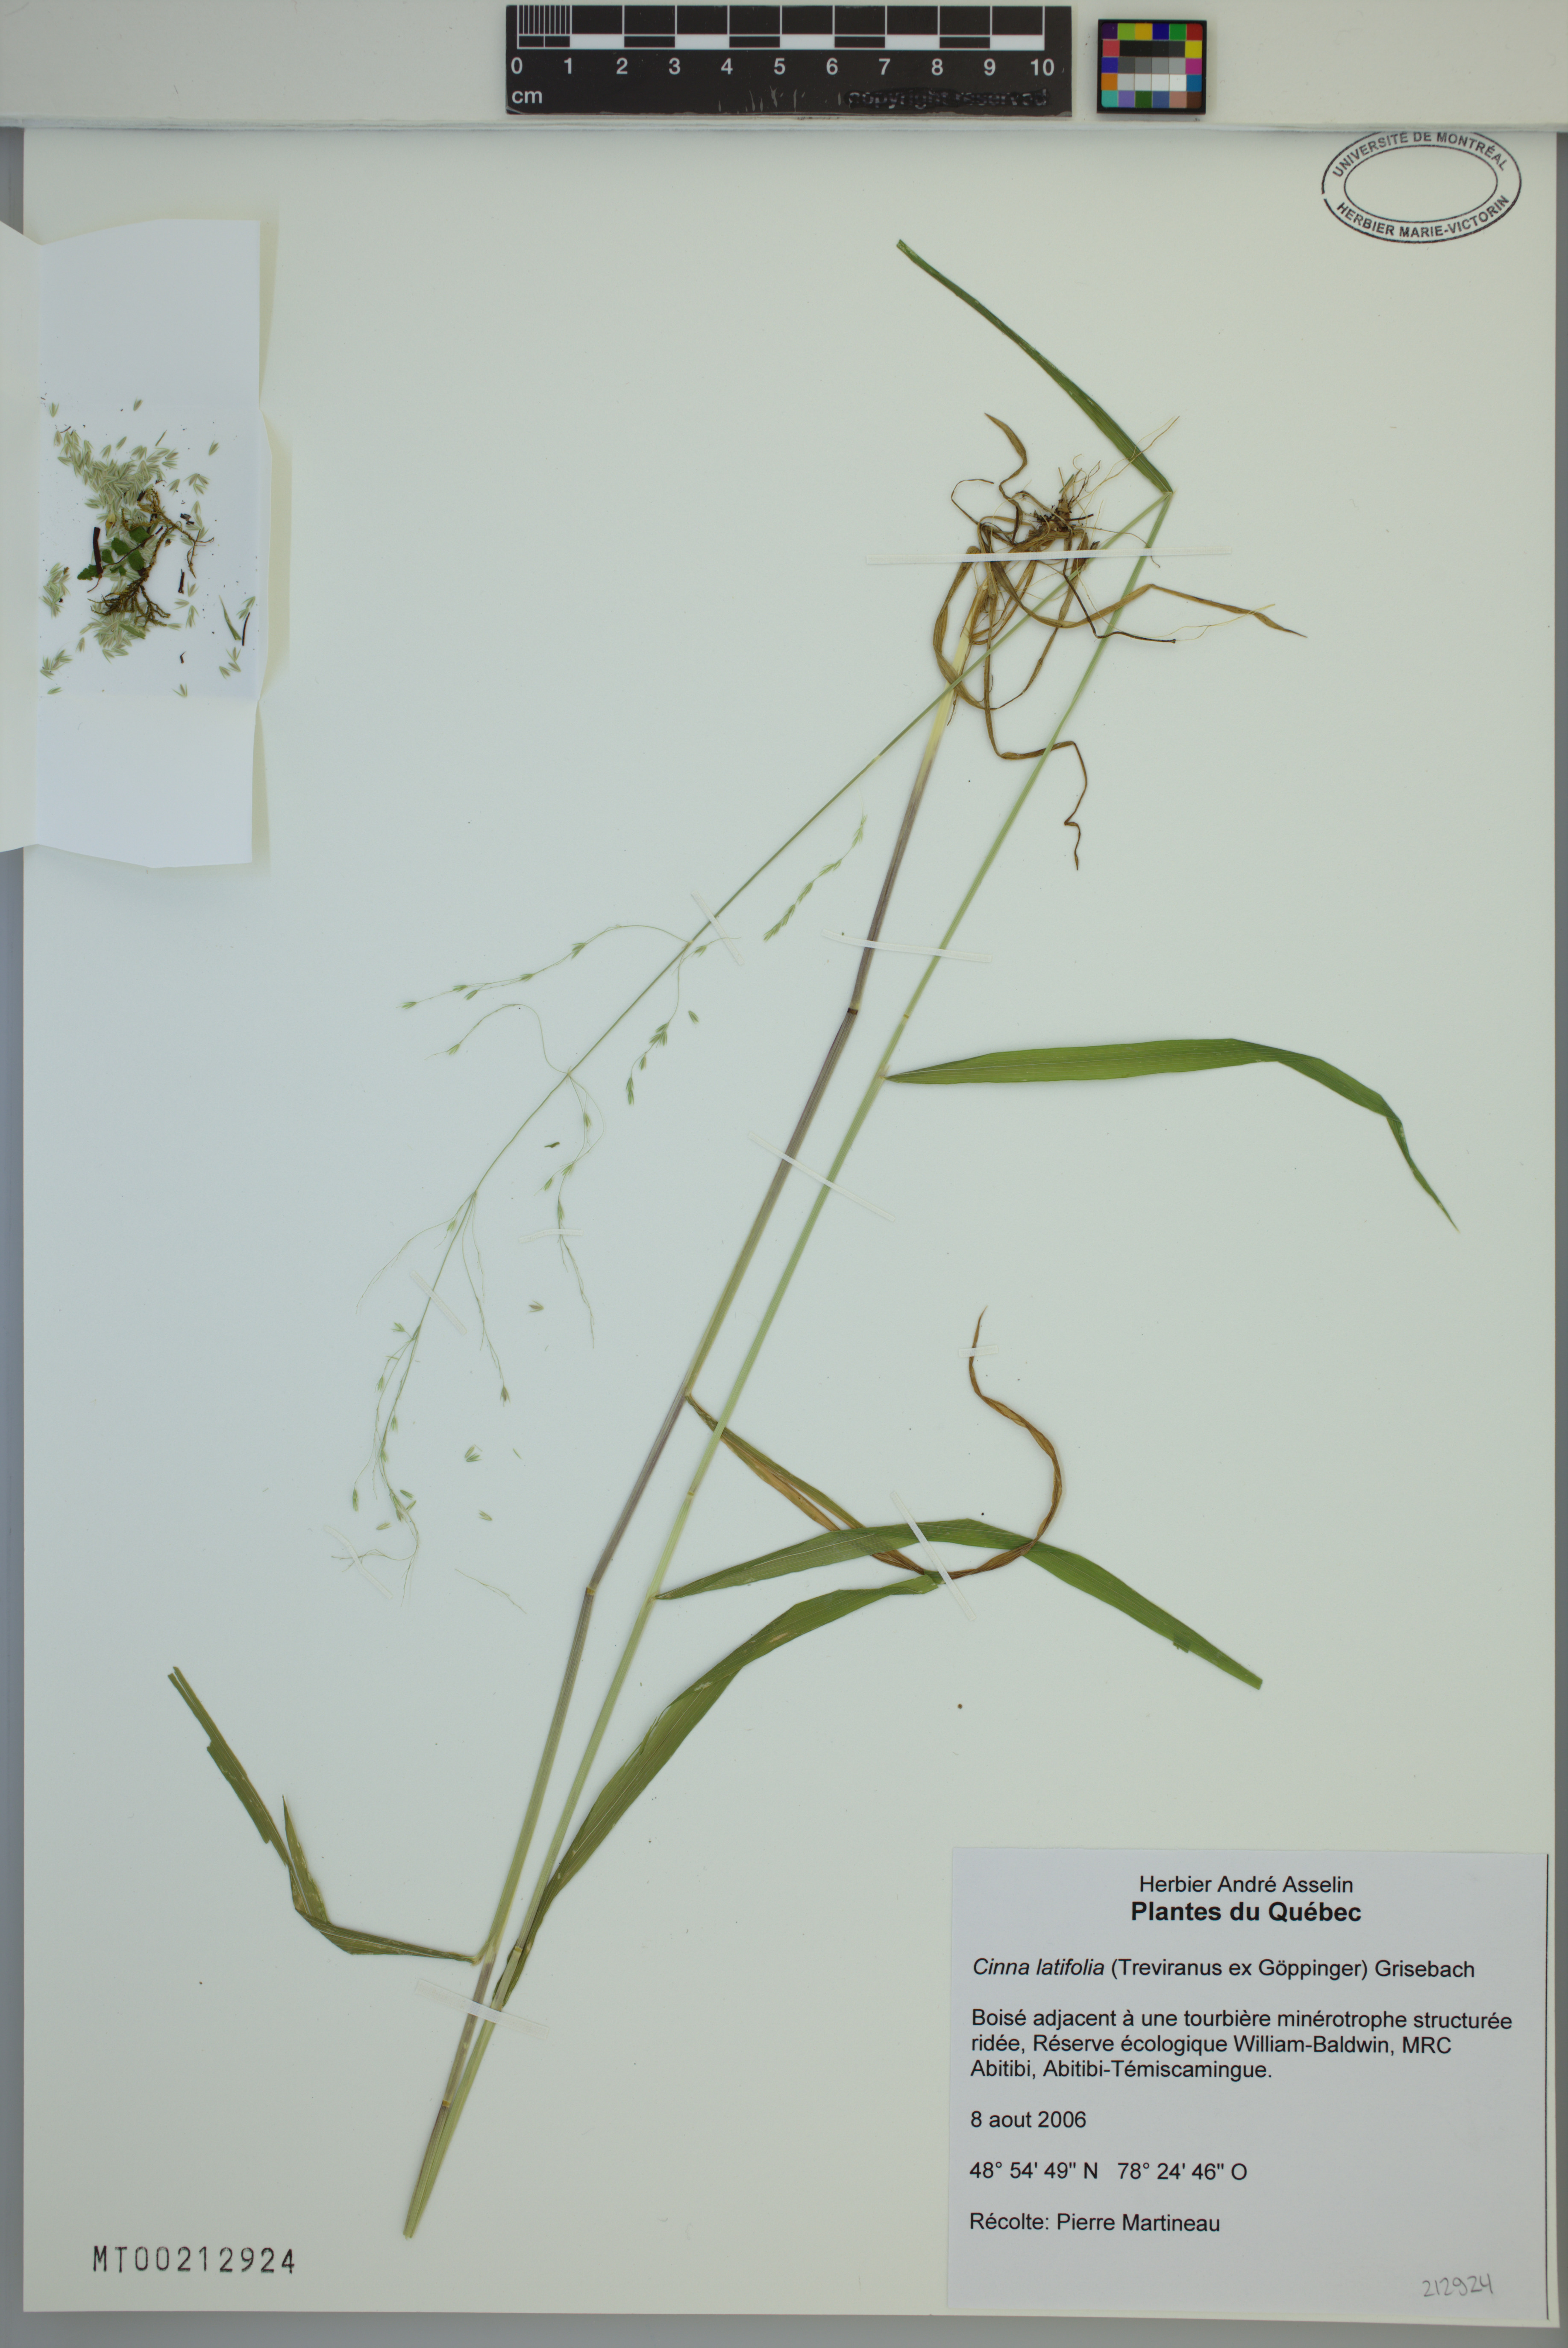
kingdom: Plantae
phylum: Tracheophyta
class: Liliopsida
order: Poales
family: Poaceae
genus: Cinna
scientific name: Cinna latifolia
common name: Drooping woodreed
